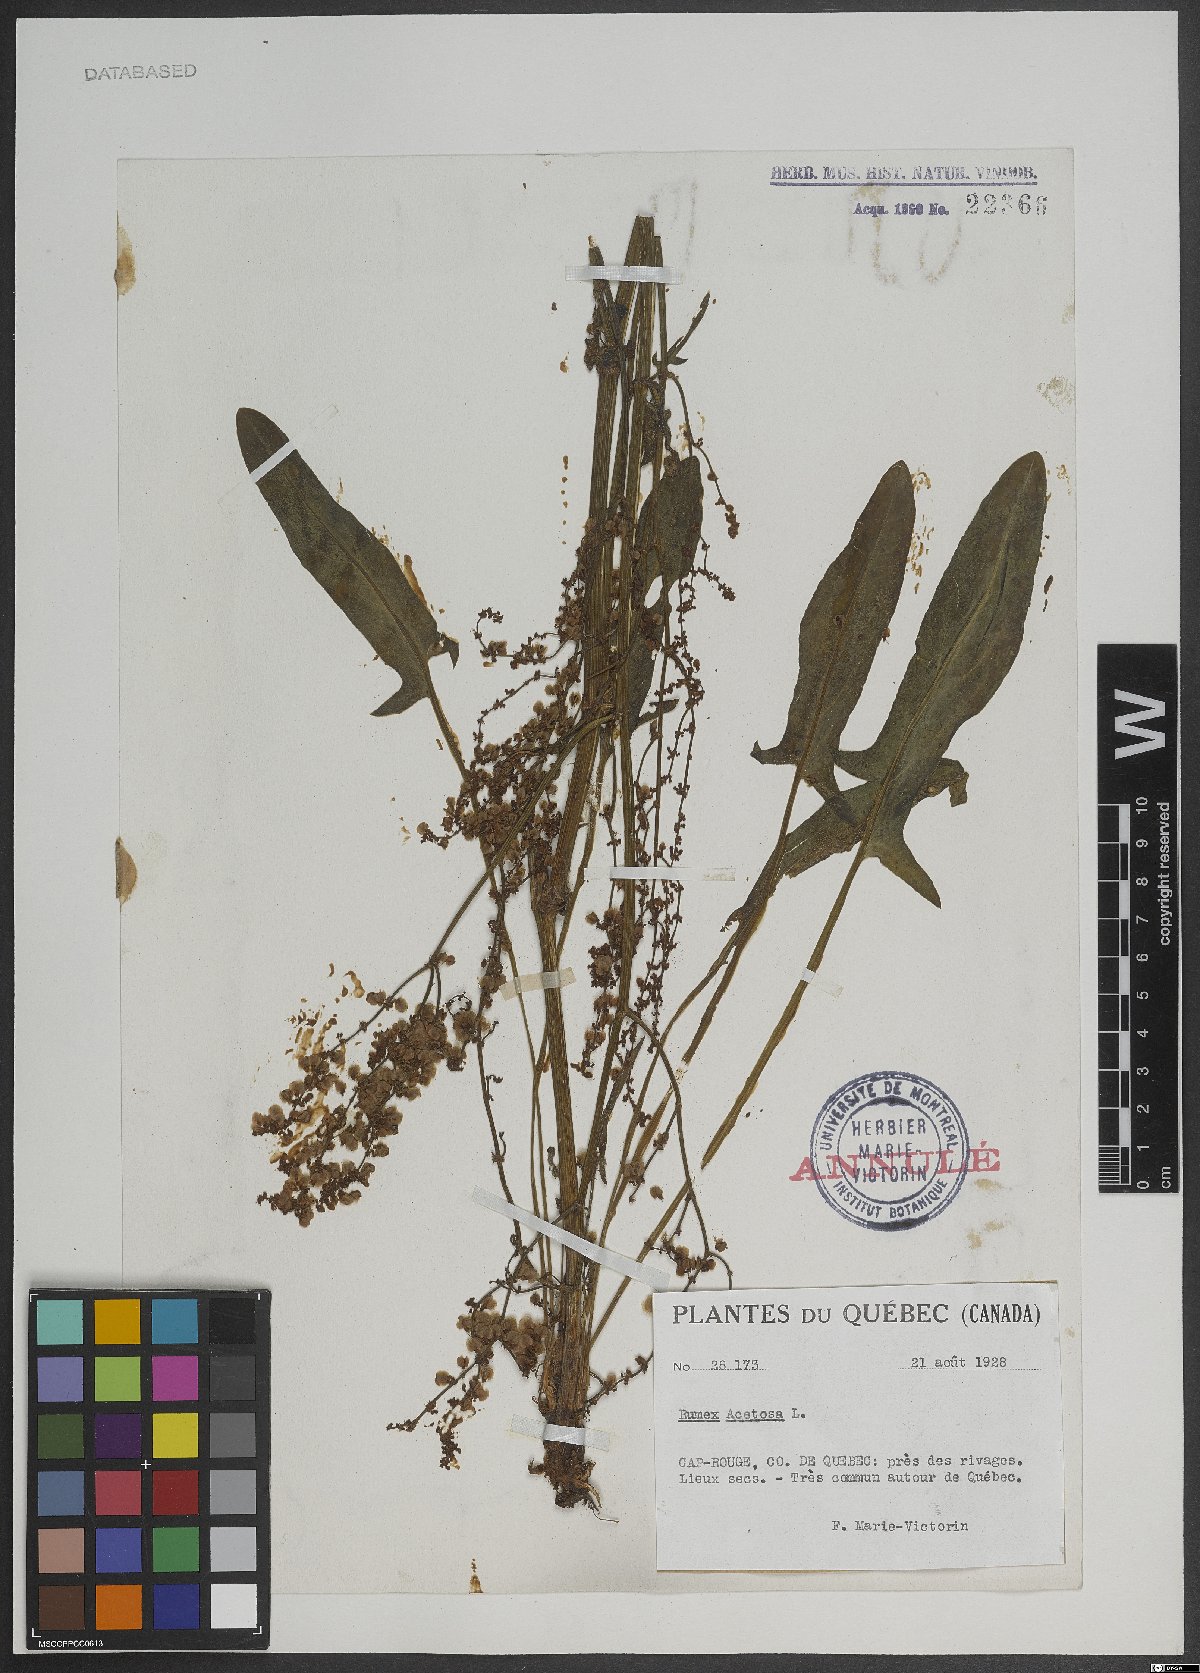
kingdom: Plantae
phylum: Tracheophyta
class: Magnoliopsida
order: Caryophyllales
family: Polygonaceae
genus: Rumex
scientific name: Rumex acetosa
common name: Garden sorrel
